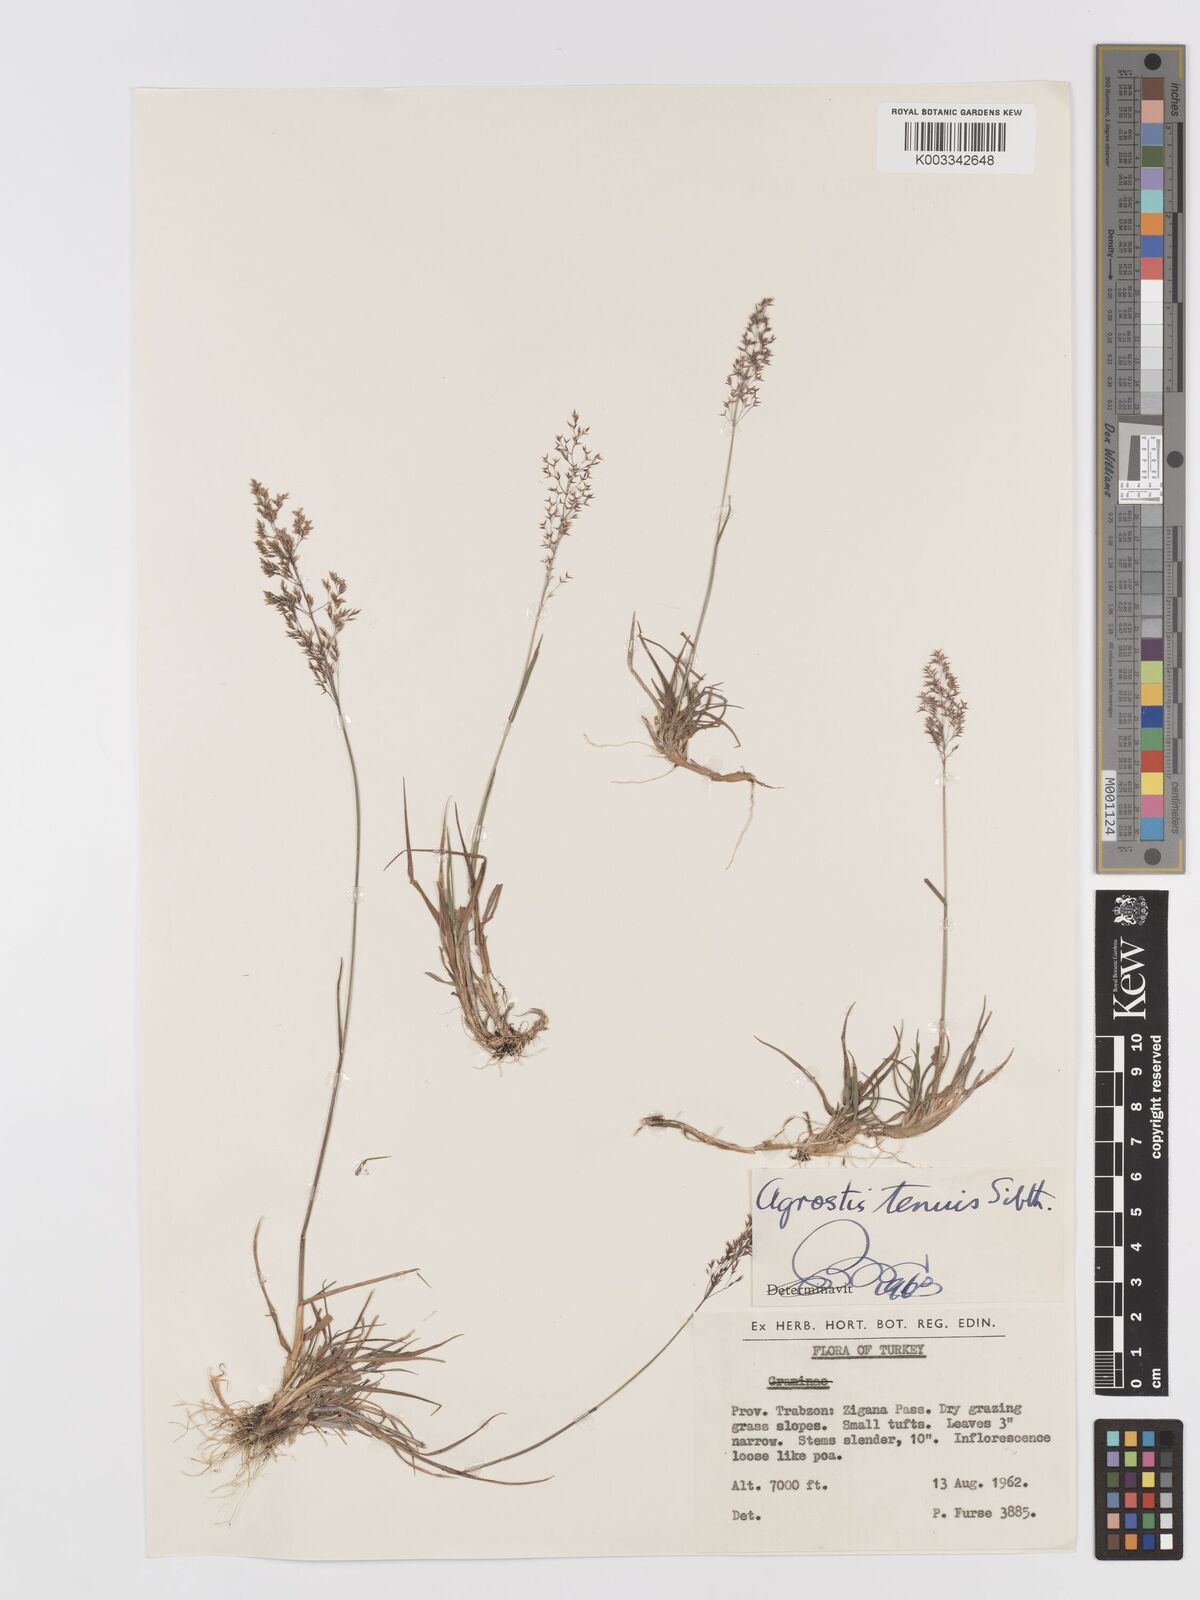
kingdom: Plantae
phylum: Tracheophyta
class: Liliopsida
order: Poales
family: Poaceae
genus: Agrostis
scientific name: Agrostis capillaris
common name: Colonial bentgrass
